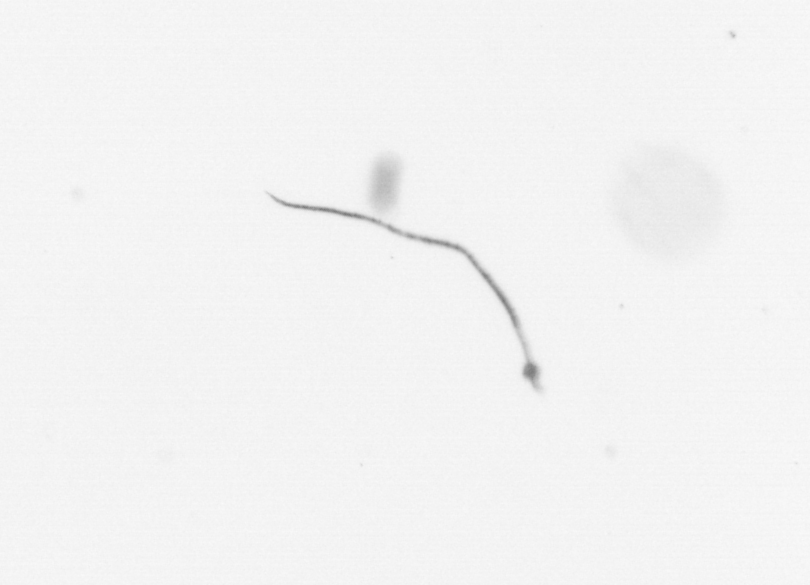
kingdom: Chromista
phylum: Ochrophyta
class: Bacillariophyceae
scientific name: Bacillariophyceae
